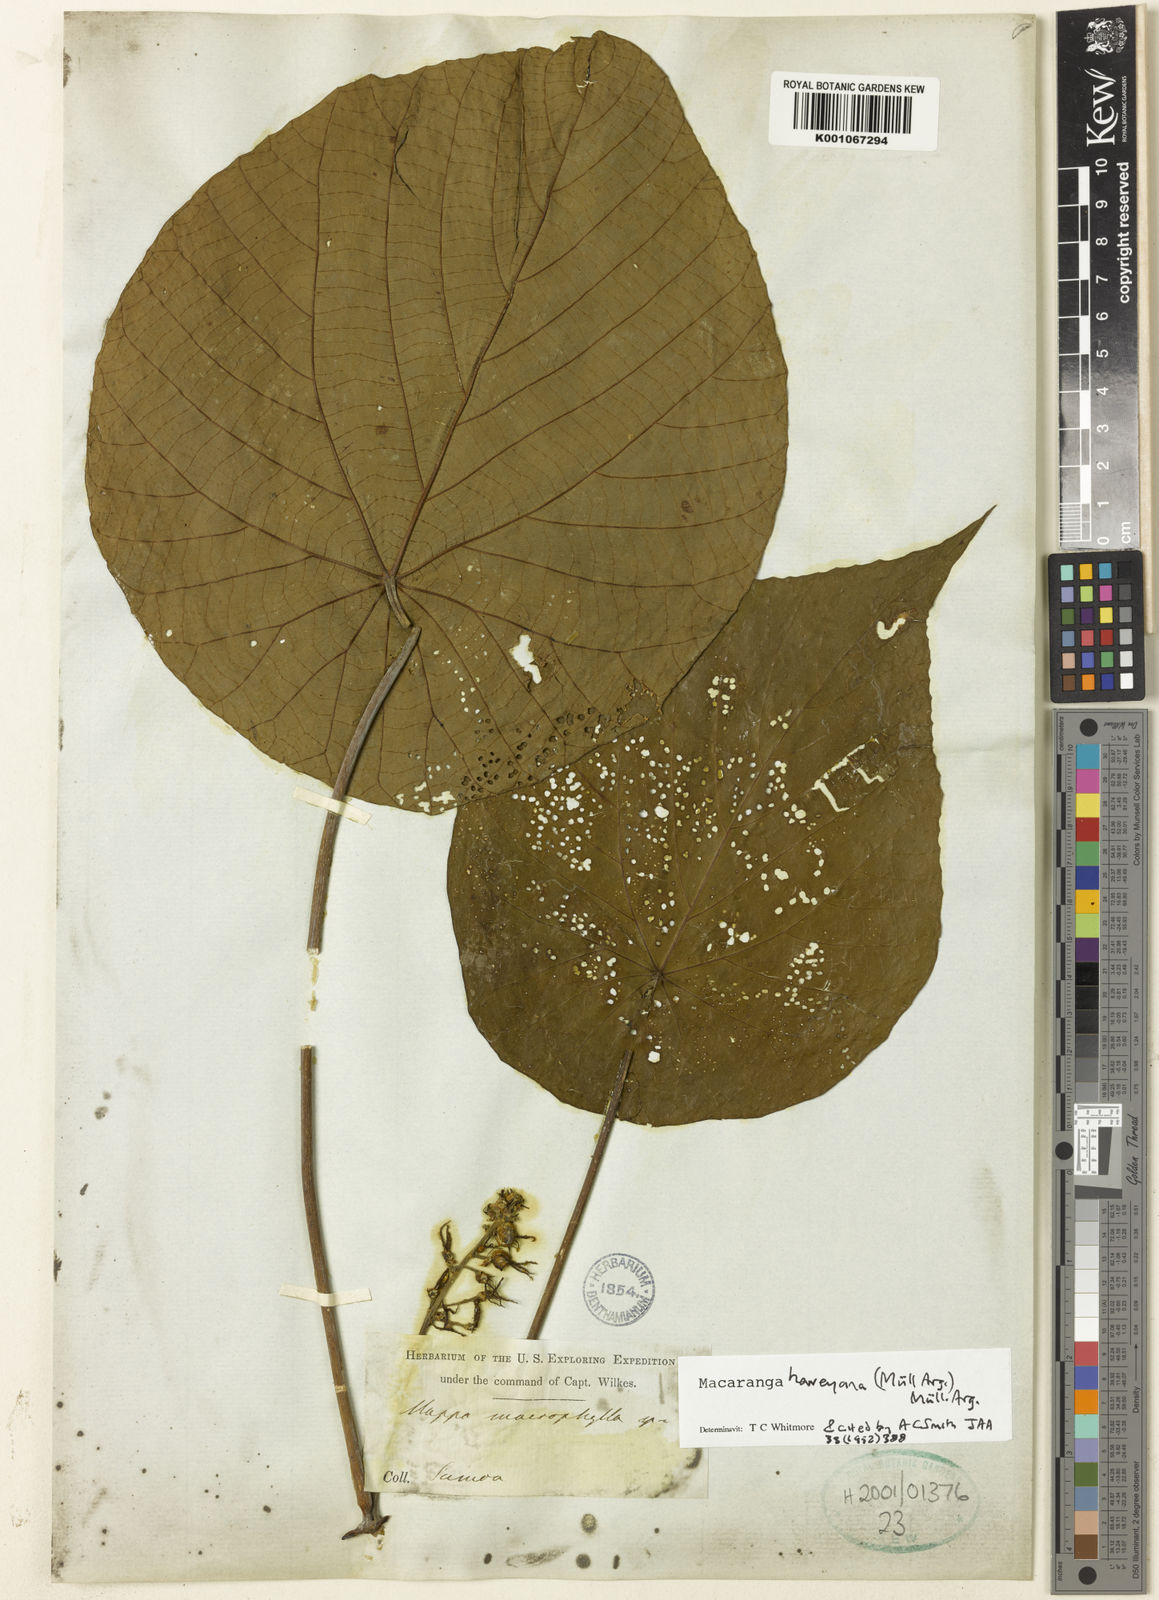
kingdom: Plantae
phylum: Tracheophyta
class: Magnoliopsida
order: Malpighiales
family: Euphorbiaceae
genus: Macaranga
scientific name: Macaranga
